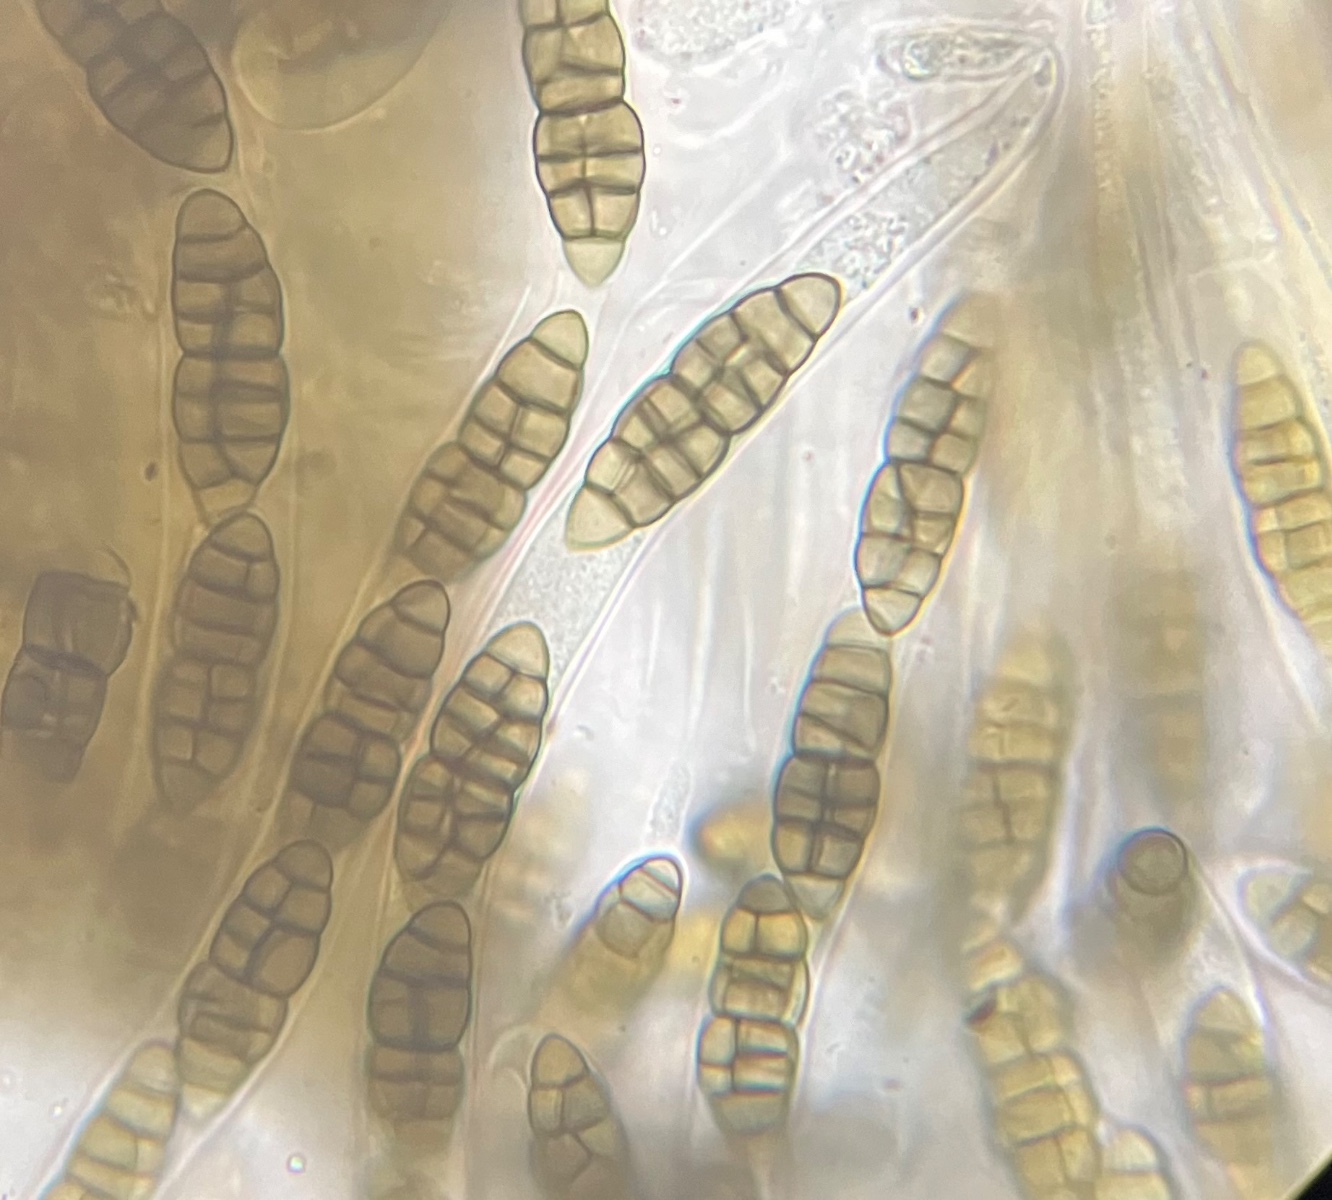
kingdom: Fungi
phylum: Ascomycota
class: Dothideomycetes
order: Pleosporales
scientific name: Pleosporales
